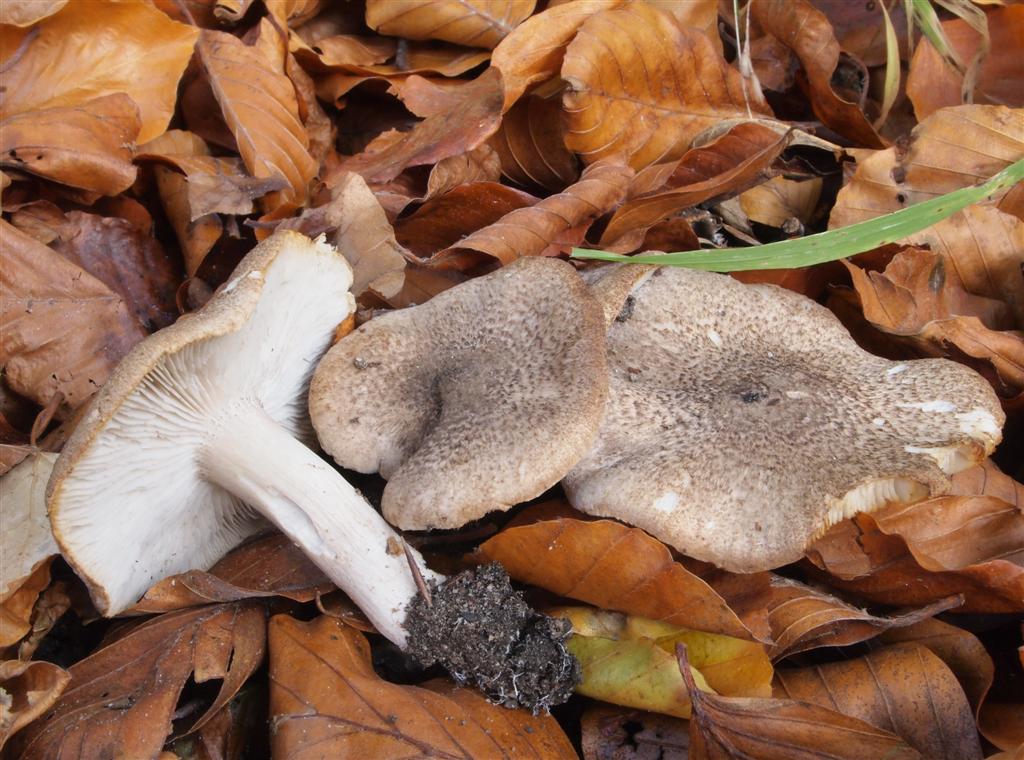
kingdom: Fungi
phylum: Basidiomycota
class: Agaricomycetes
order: Agaricales
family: Tricholomataceae
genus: Tricholoma
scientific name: Tricholoma scalpturatum
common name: gulplettet ridderhat
